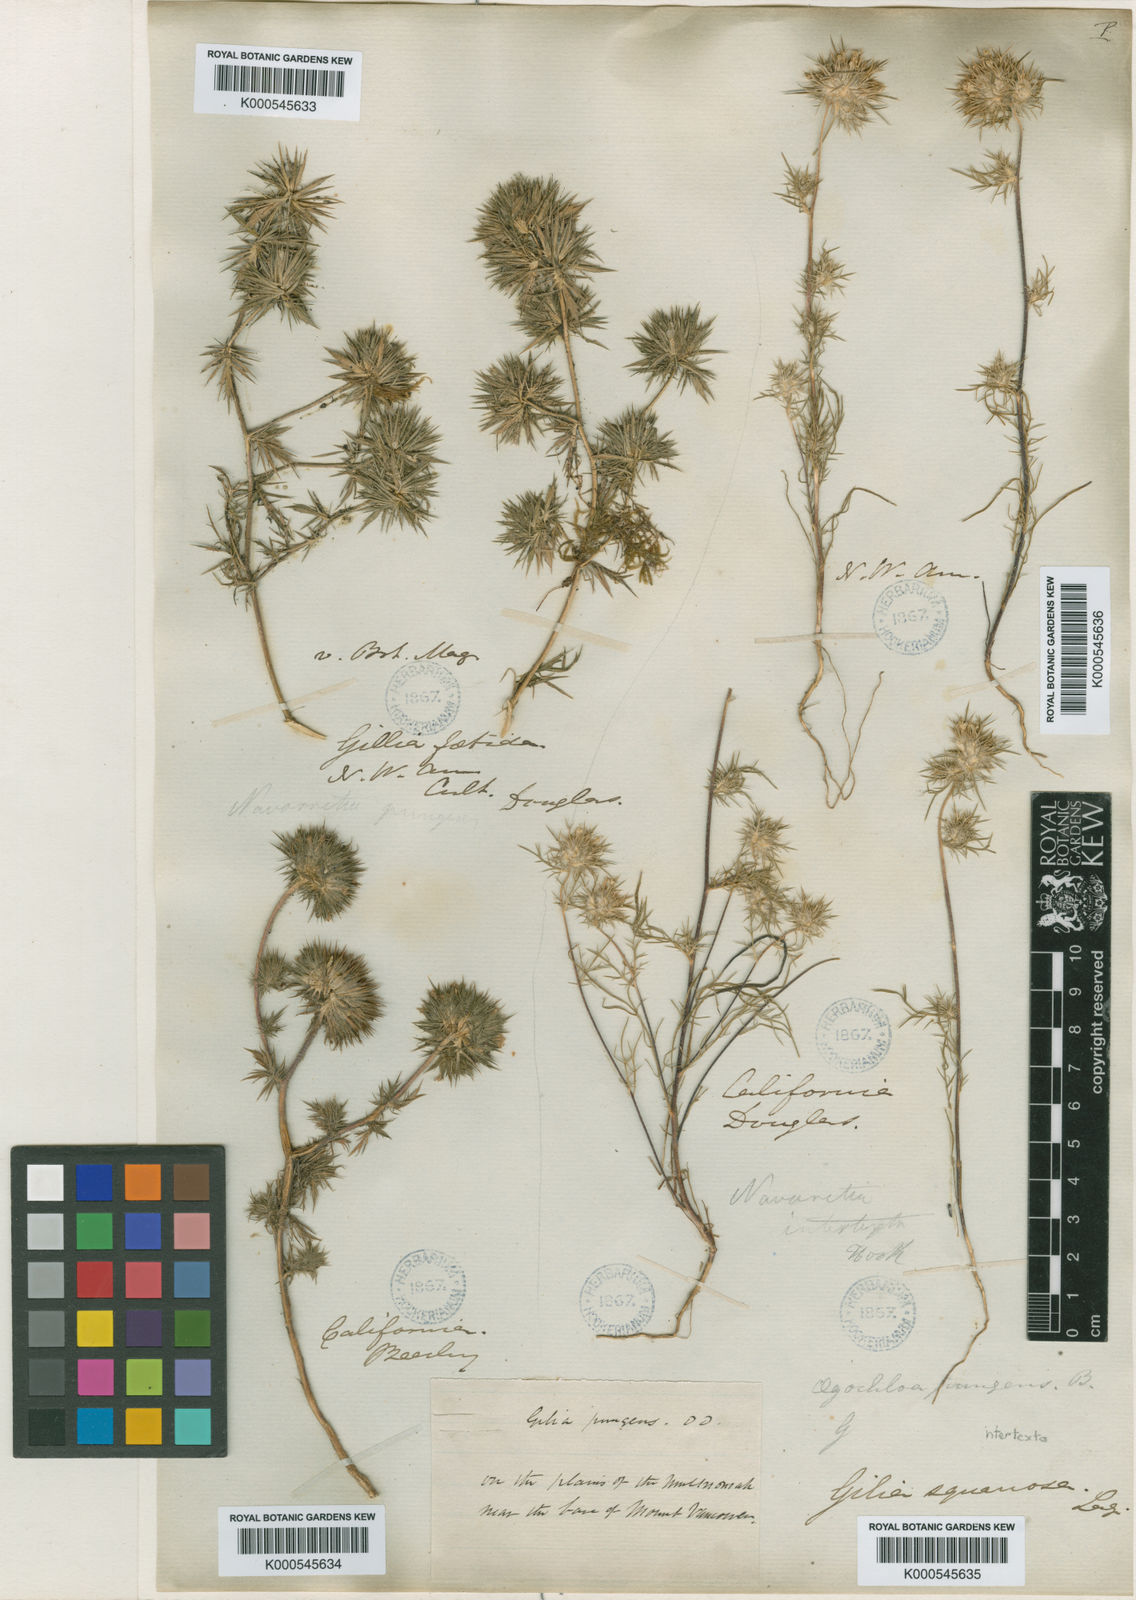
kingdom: Plantae
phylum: Tracheophyta
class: Magnoliopsida
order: Ericales
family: Polemoniaceae
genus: Navarretia
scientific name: Navarretia intertexta
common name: Needle-leaved navarretia
